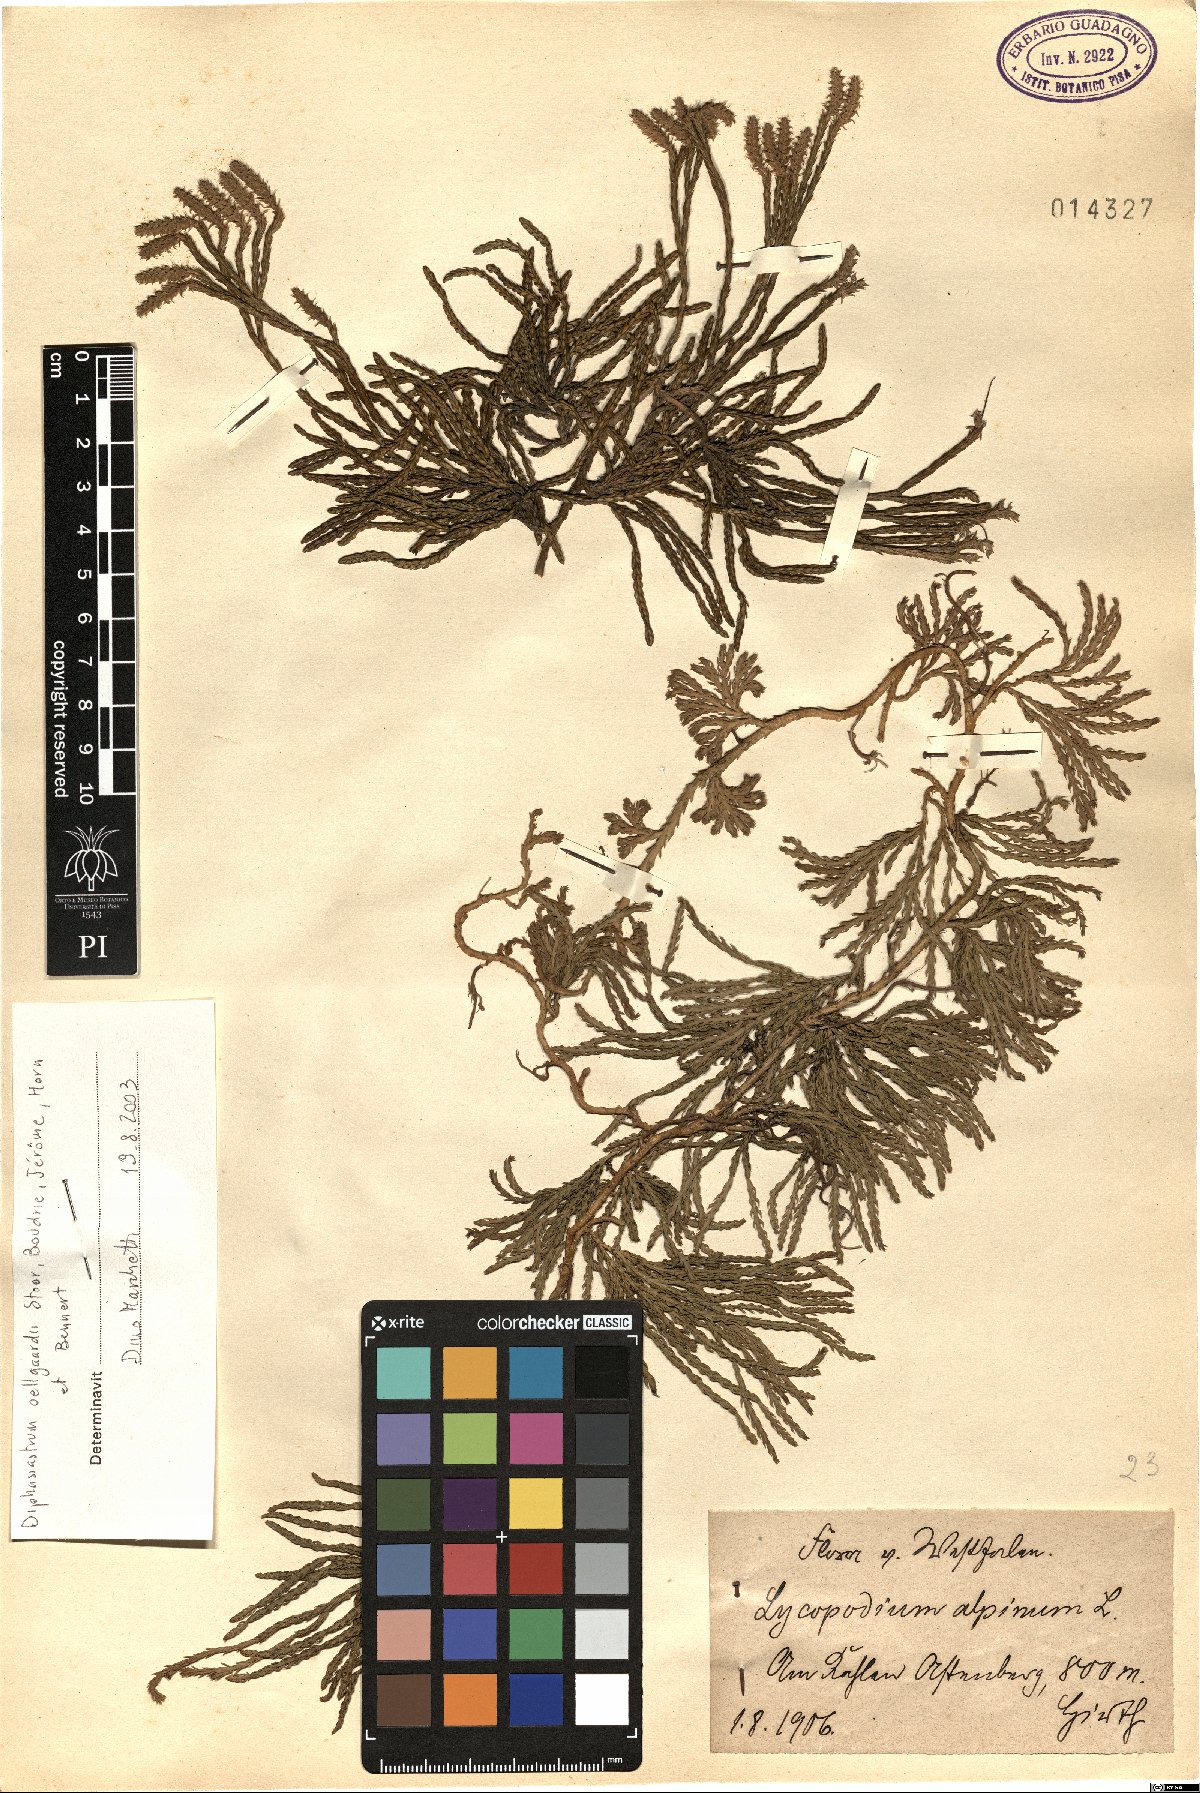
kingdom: Plantae
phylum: Tracheophyta
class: Lycopodiopsida
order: Lycopodiales
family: Lycopodiaceae
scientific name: Lycopodiaceae
